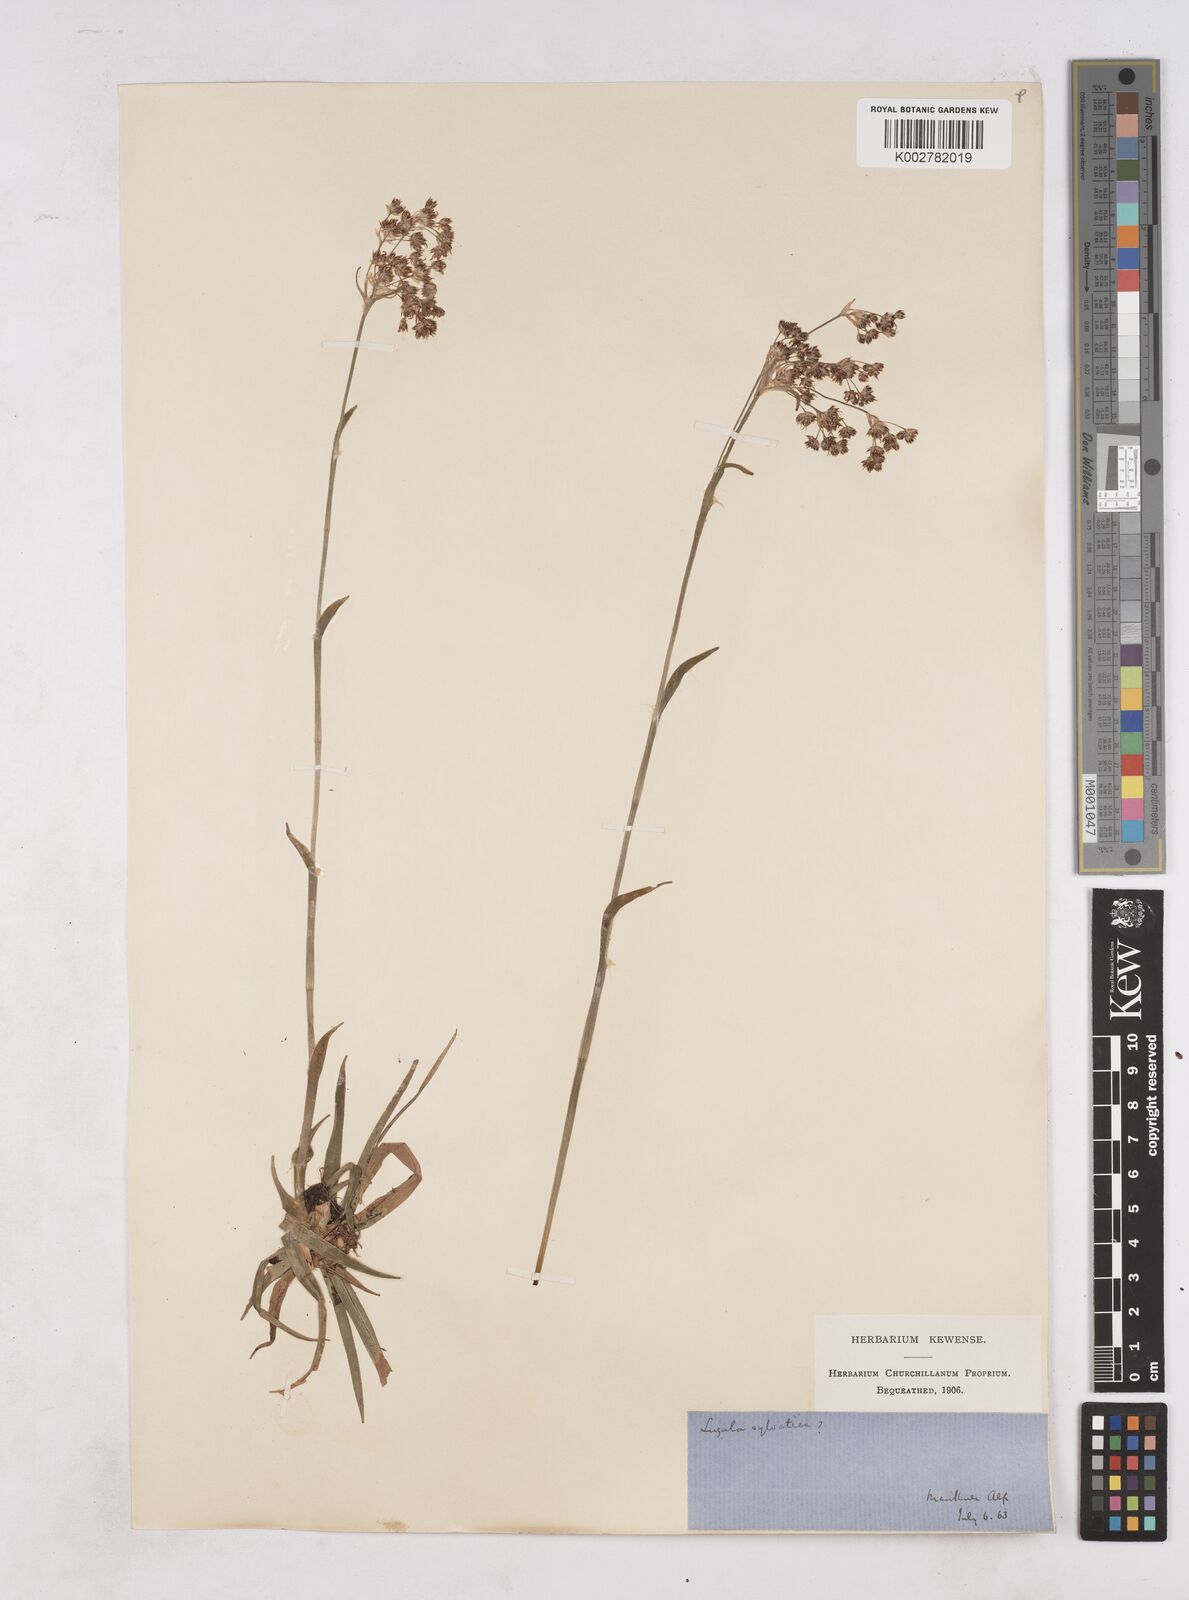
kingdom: Plantae
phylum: Tracheophyta
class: Liliopsida
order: Poales
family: Juncaceae
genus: Luzula
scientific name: Luzula sylvatica
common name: Great wood-rush
